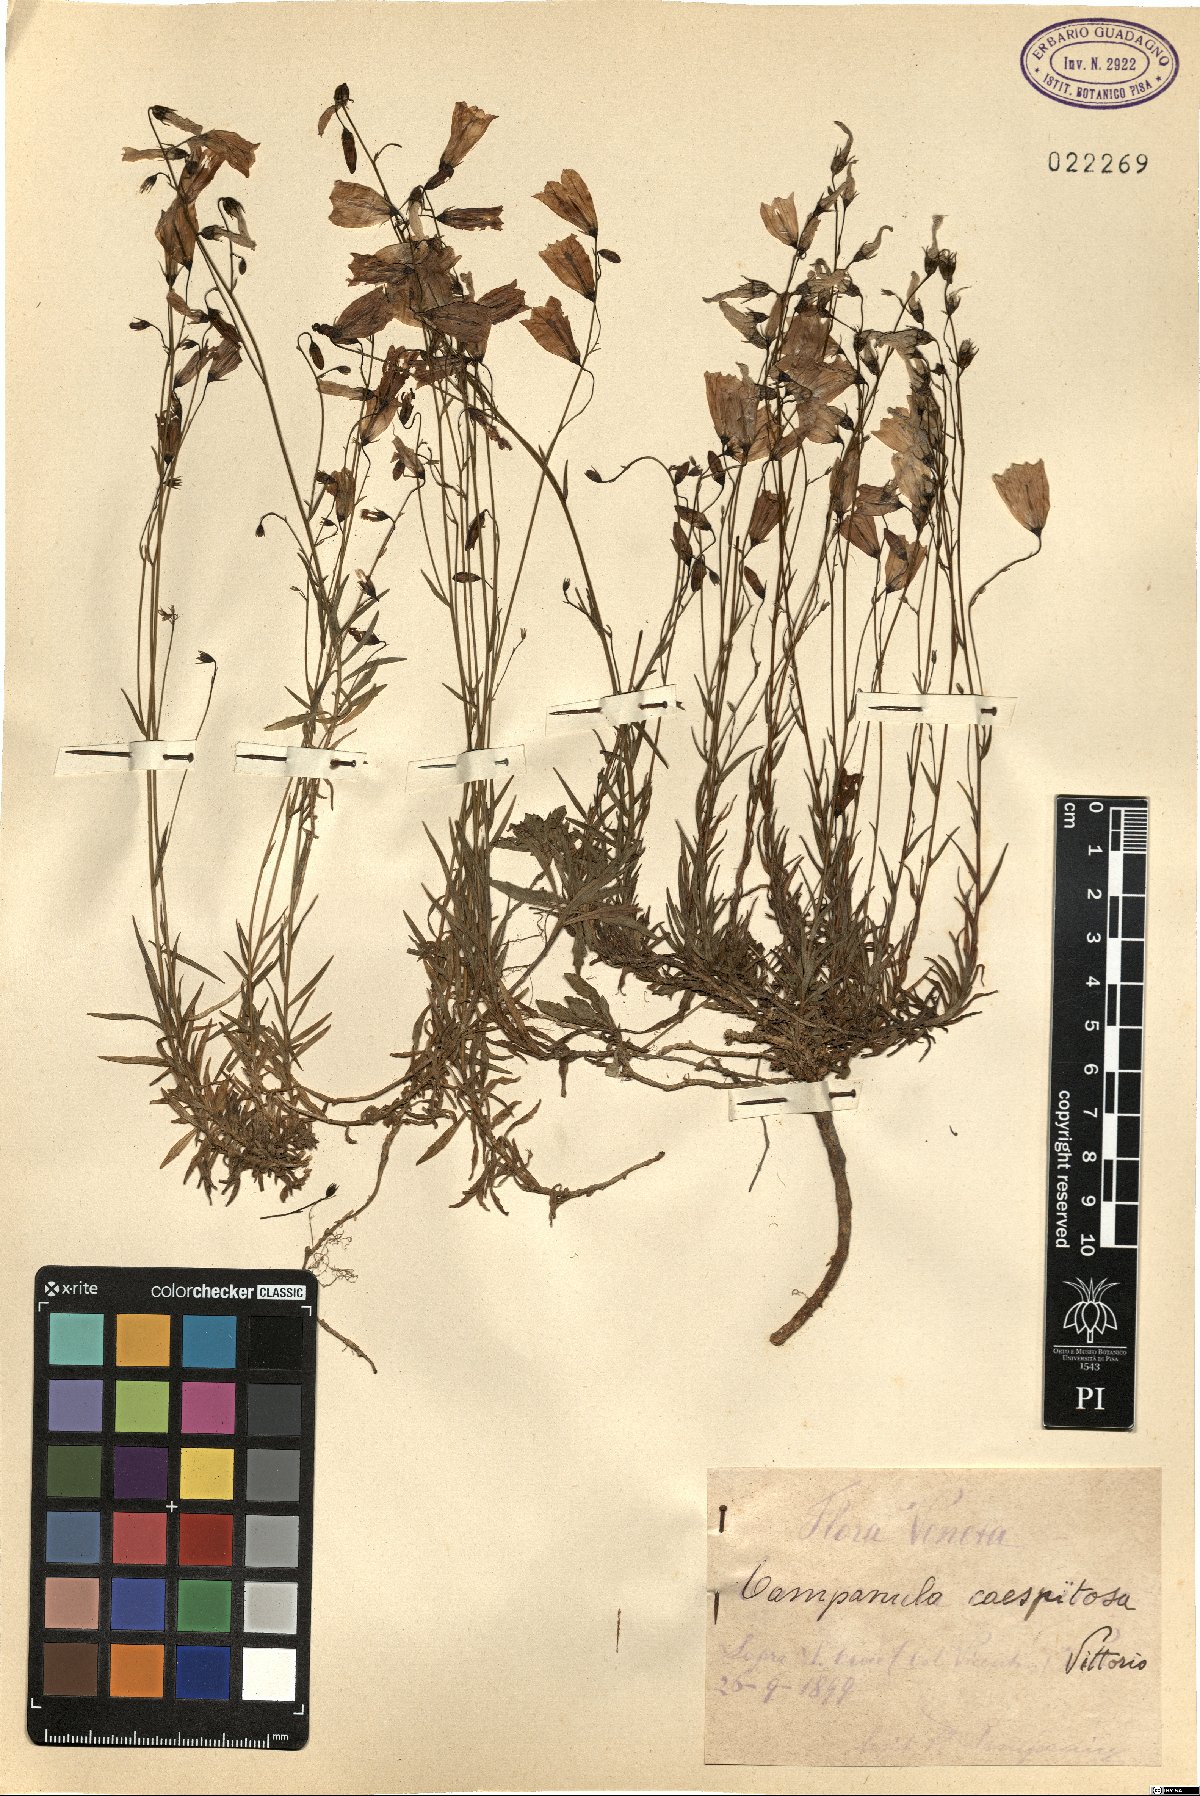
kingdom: Plantae
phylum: Tracheophyta
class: Magnoliopsida
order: Asterales
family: Campanulaceae
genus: Campanula
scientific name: Campanula caespitosa
